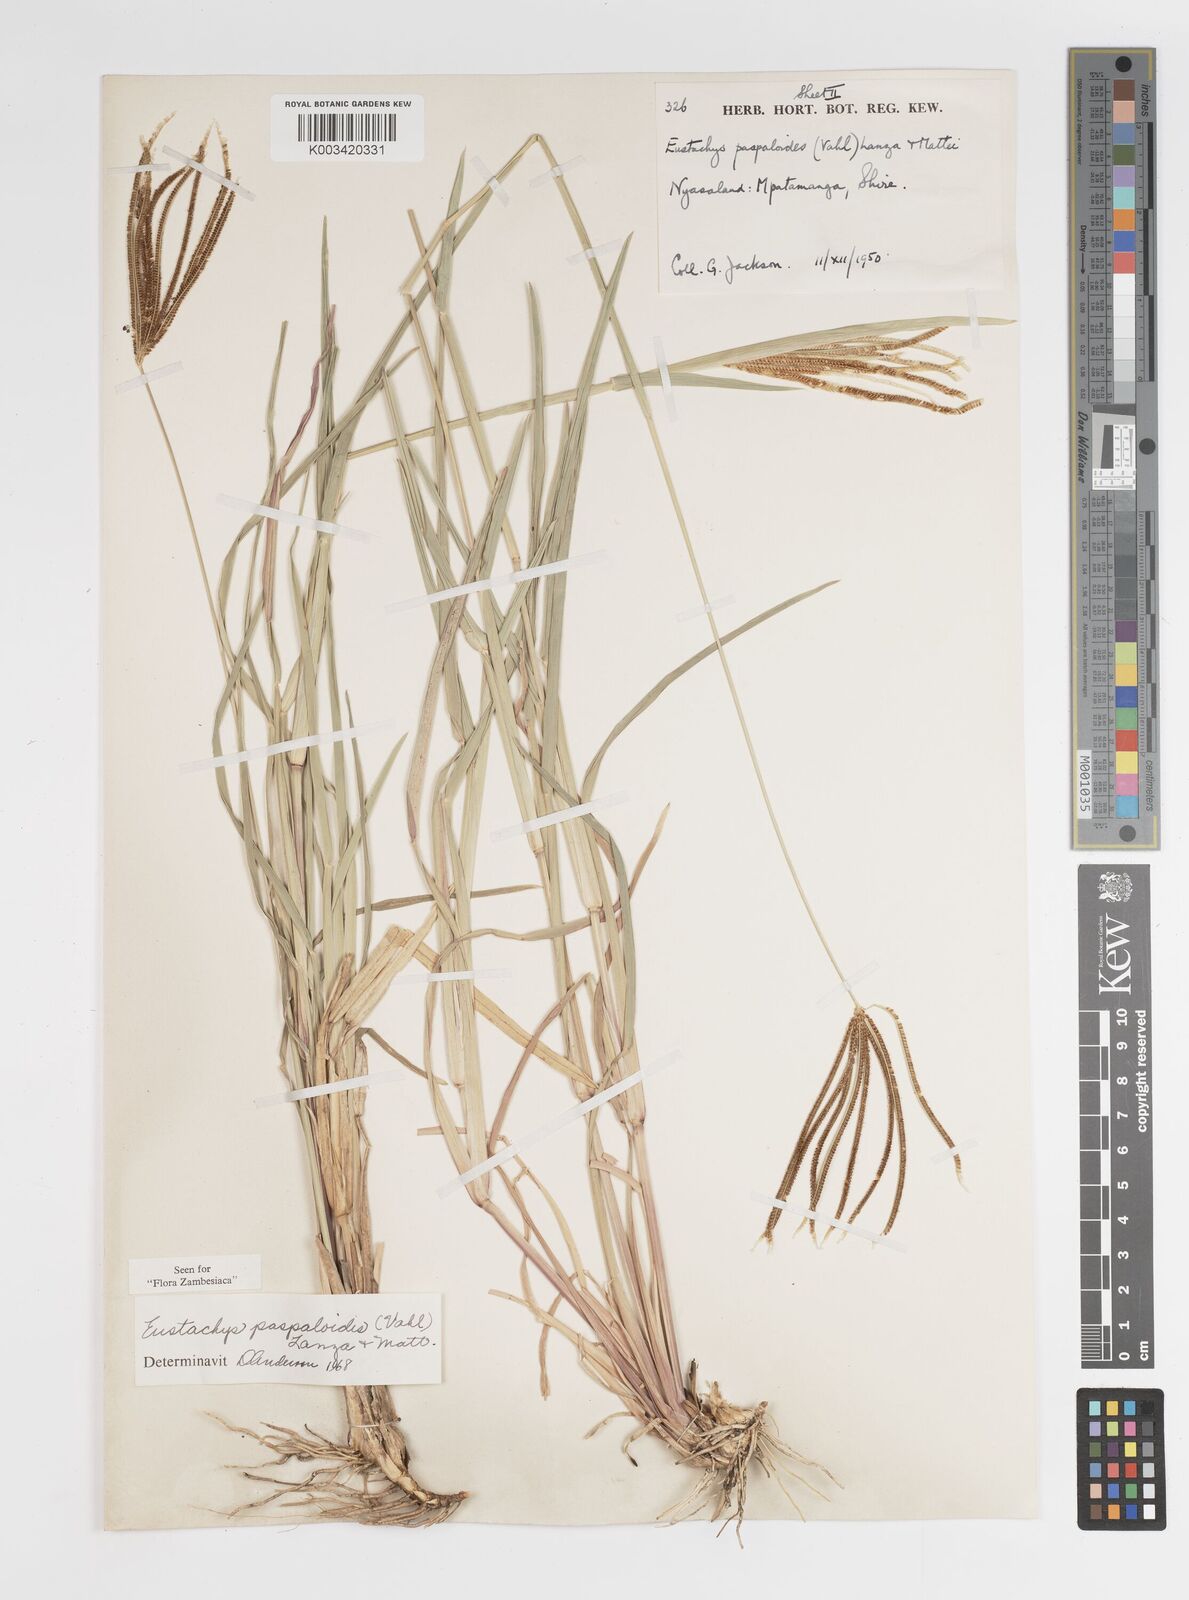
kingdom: Plantae
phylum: Tracheophyta
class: Liliopsida
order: Poales
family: Poaceae
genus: Eustachys
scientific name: Eustachys paspaloides
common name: Caribbean fingergrass
